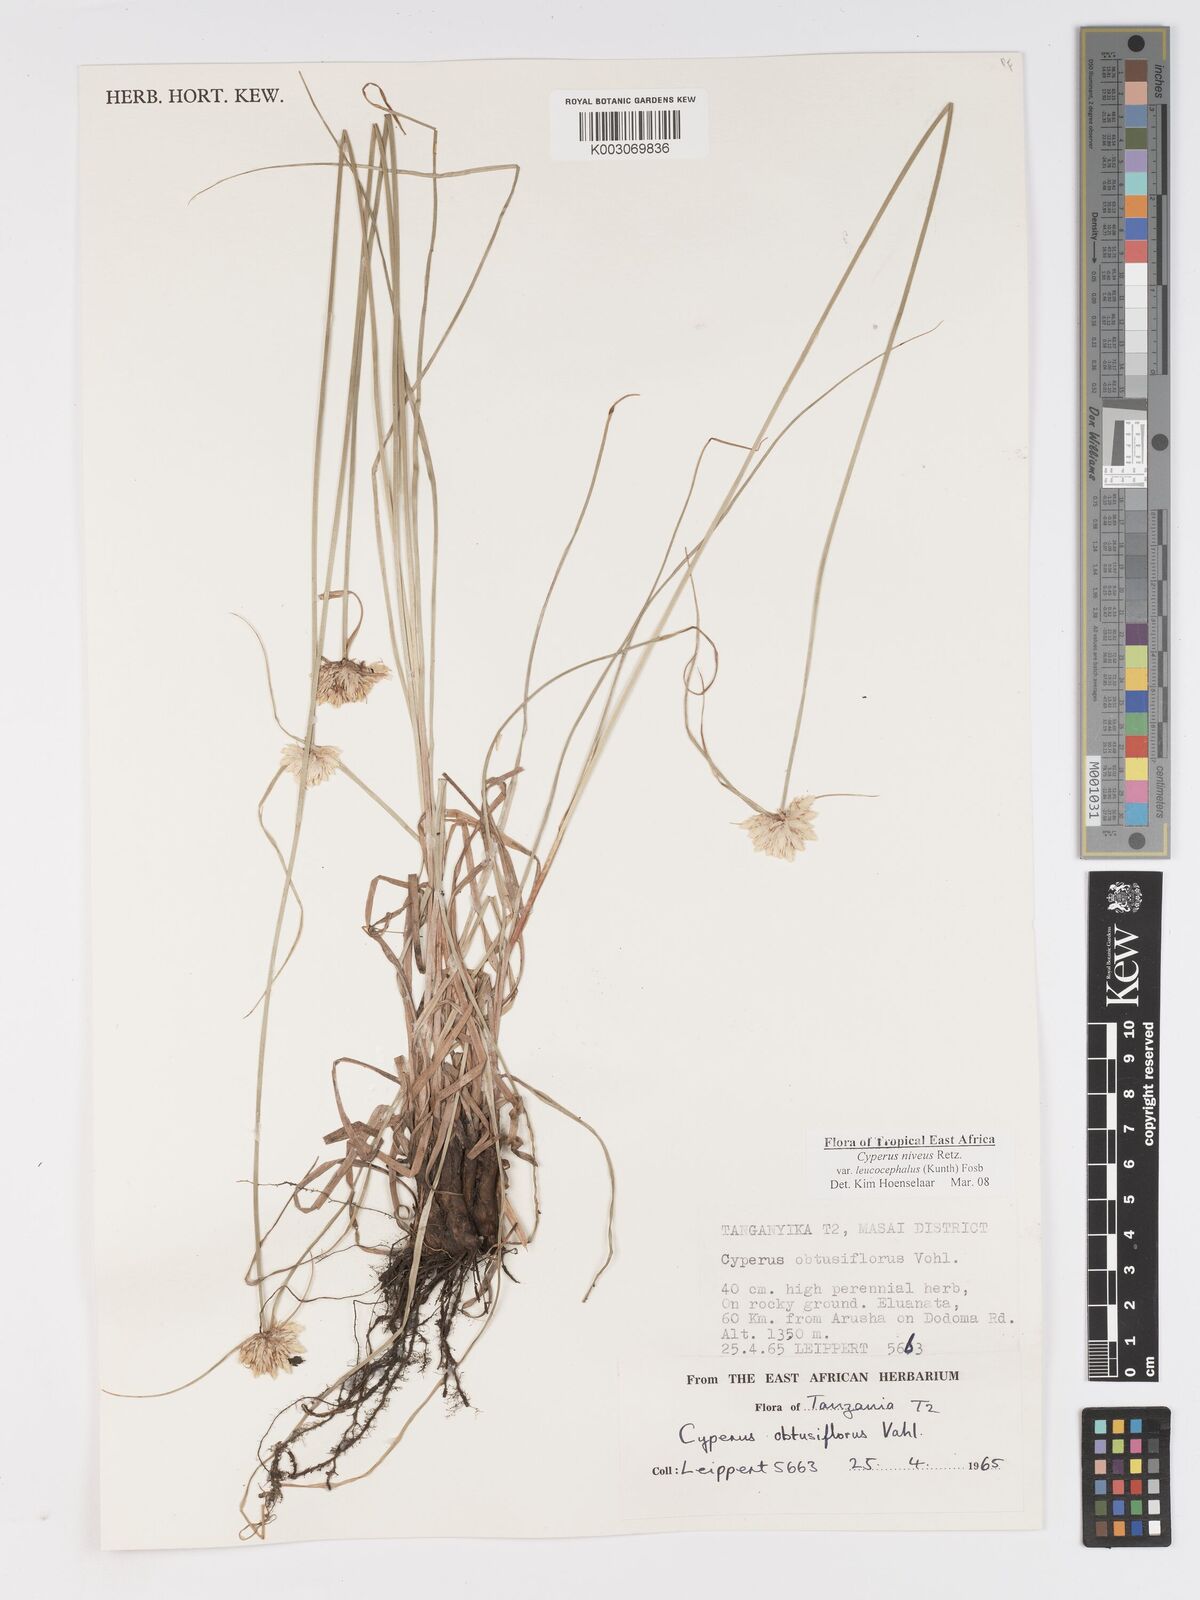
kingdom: Plantae
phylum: Tracheophyta
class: Liliopsida
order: Poales
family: Cyperaceae
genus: Cyperus
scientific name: Cyperus niveus
